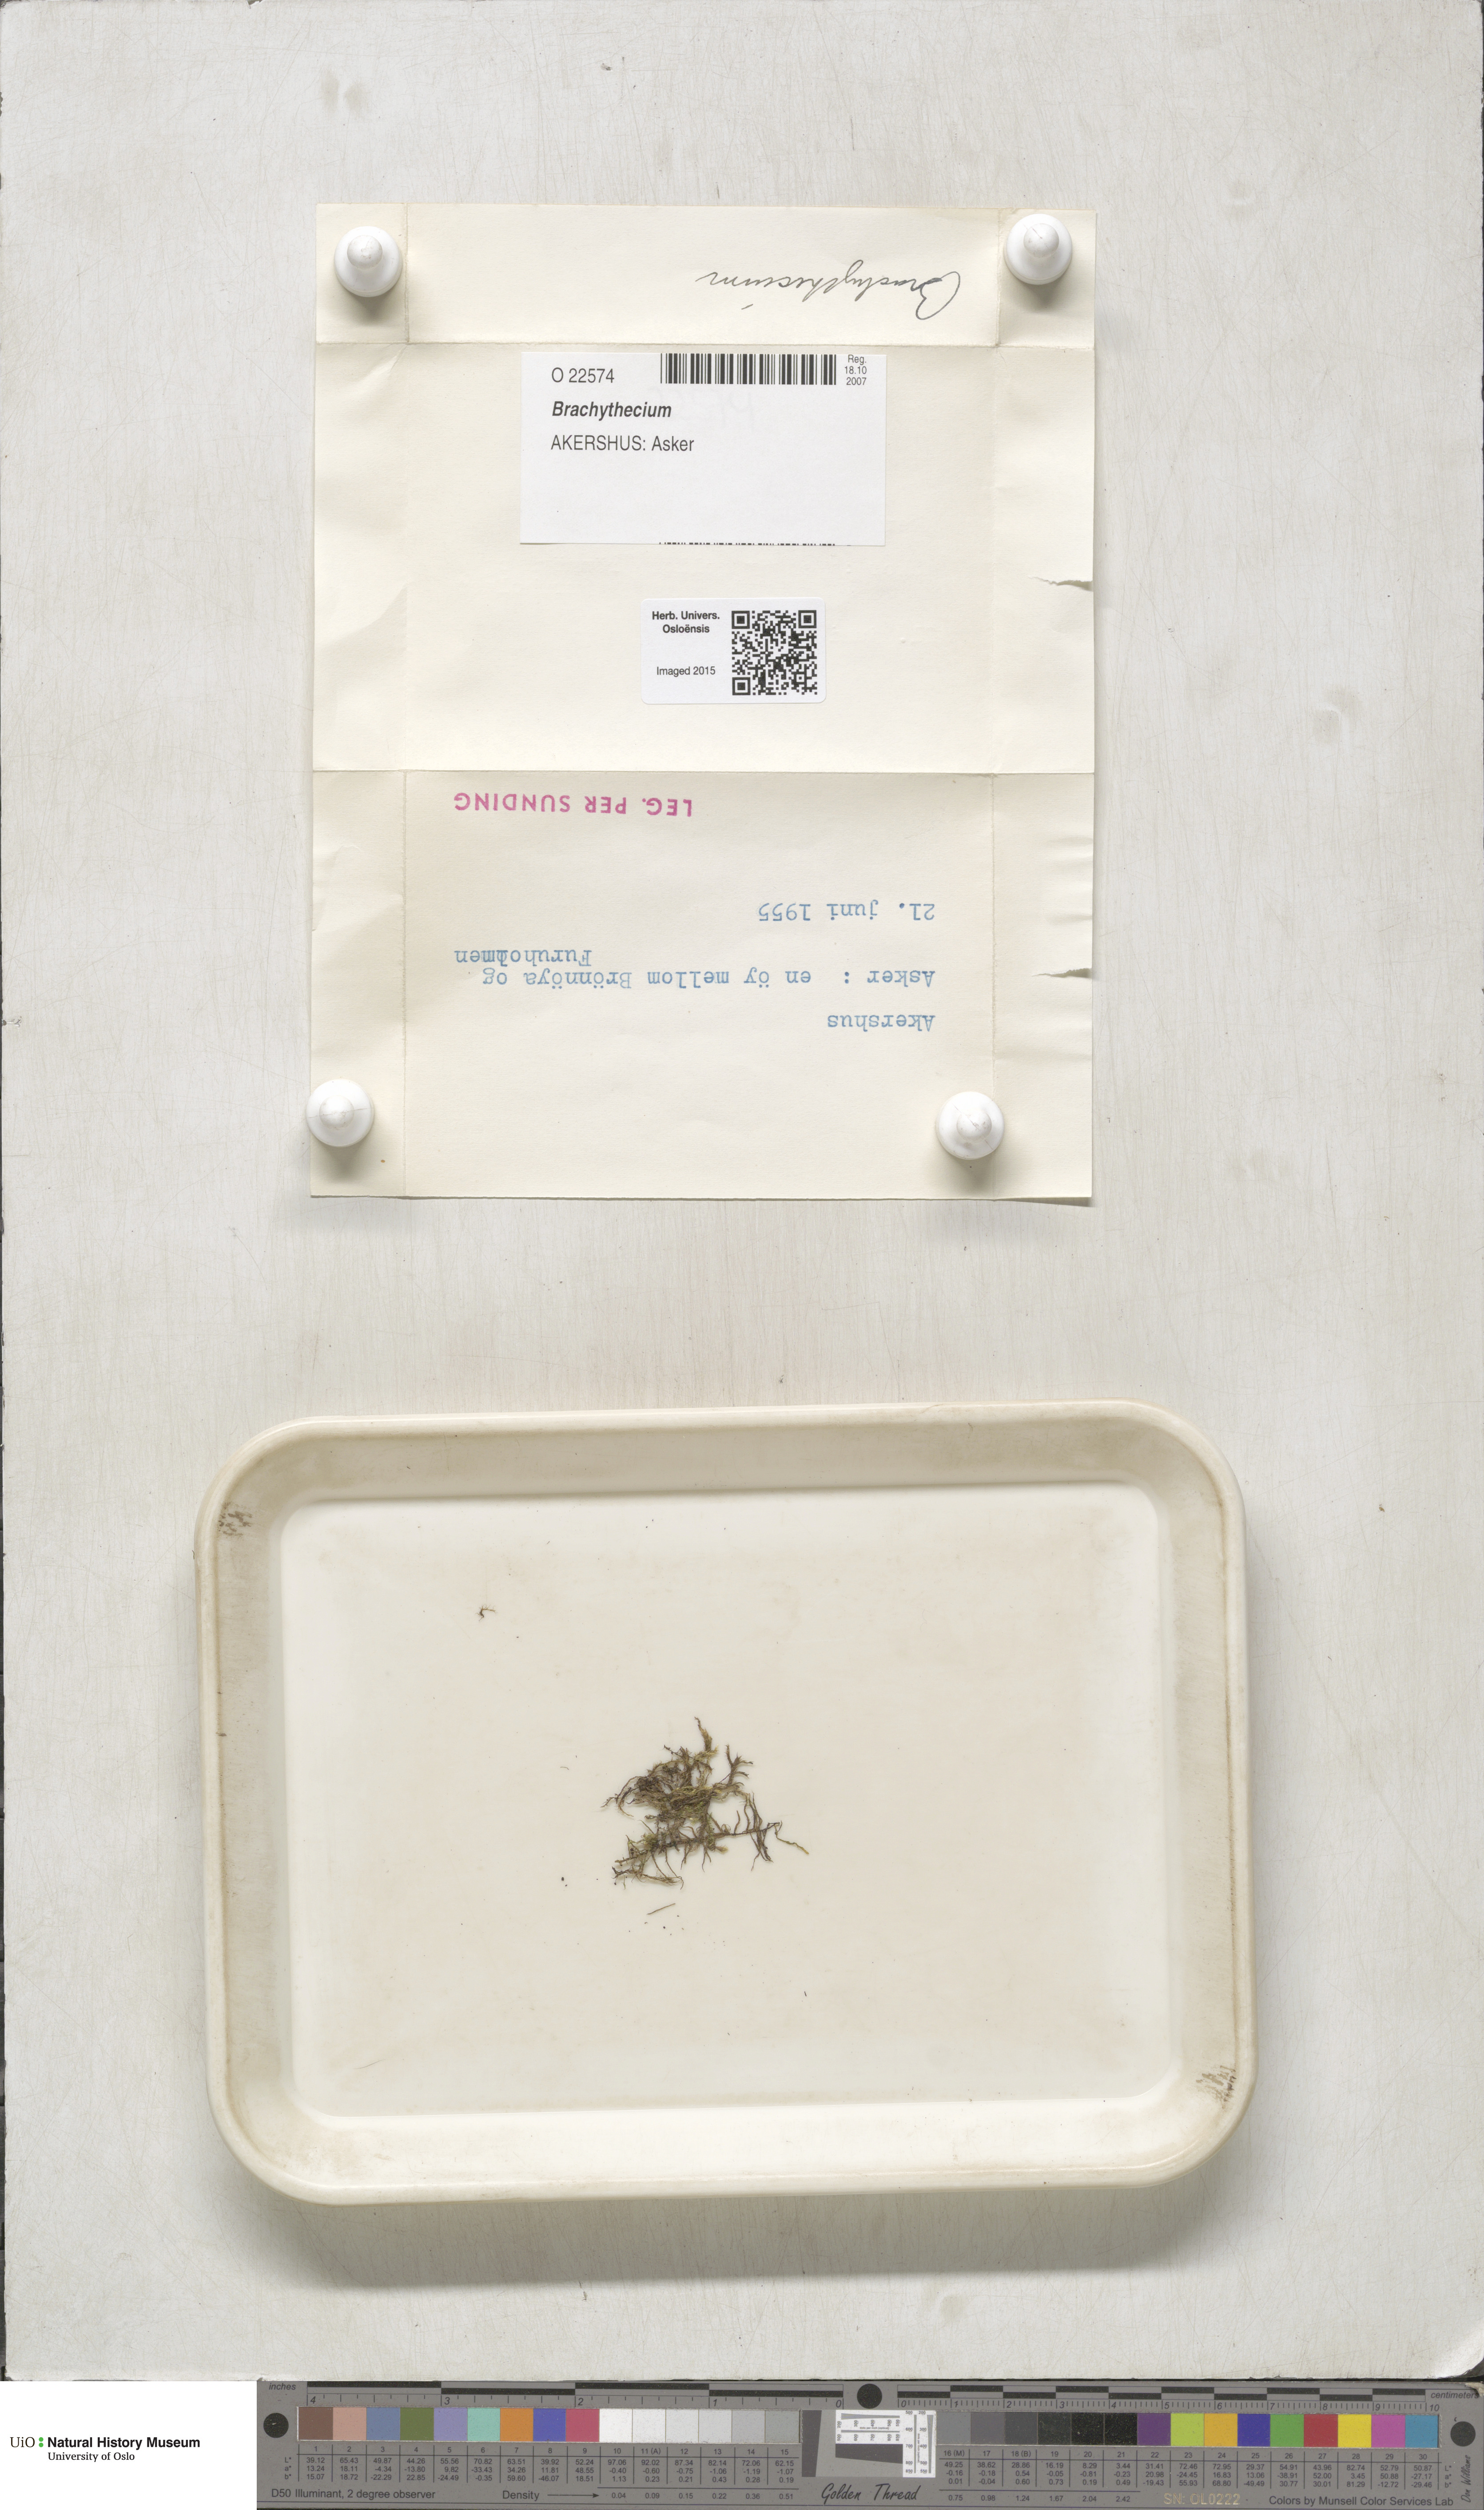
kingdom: Plantae
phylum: Bryophyta
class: Bryopsida
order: Hypnales
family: Brachytheciaceae
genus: Brachythecium
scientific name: Brachythecium
